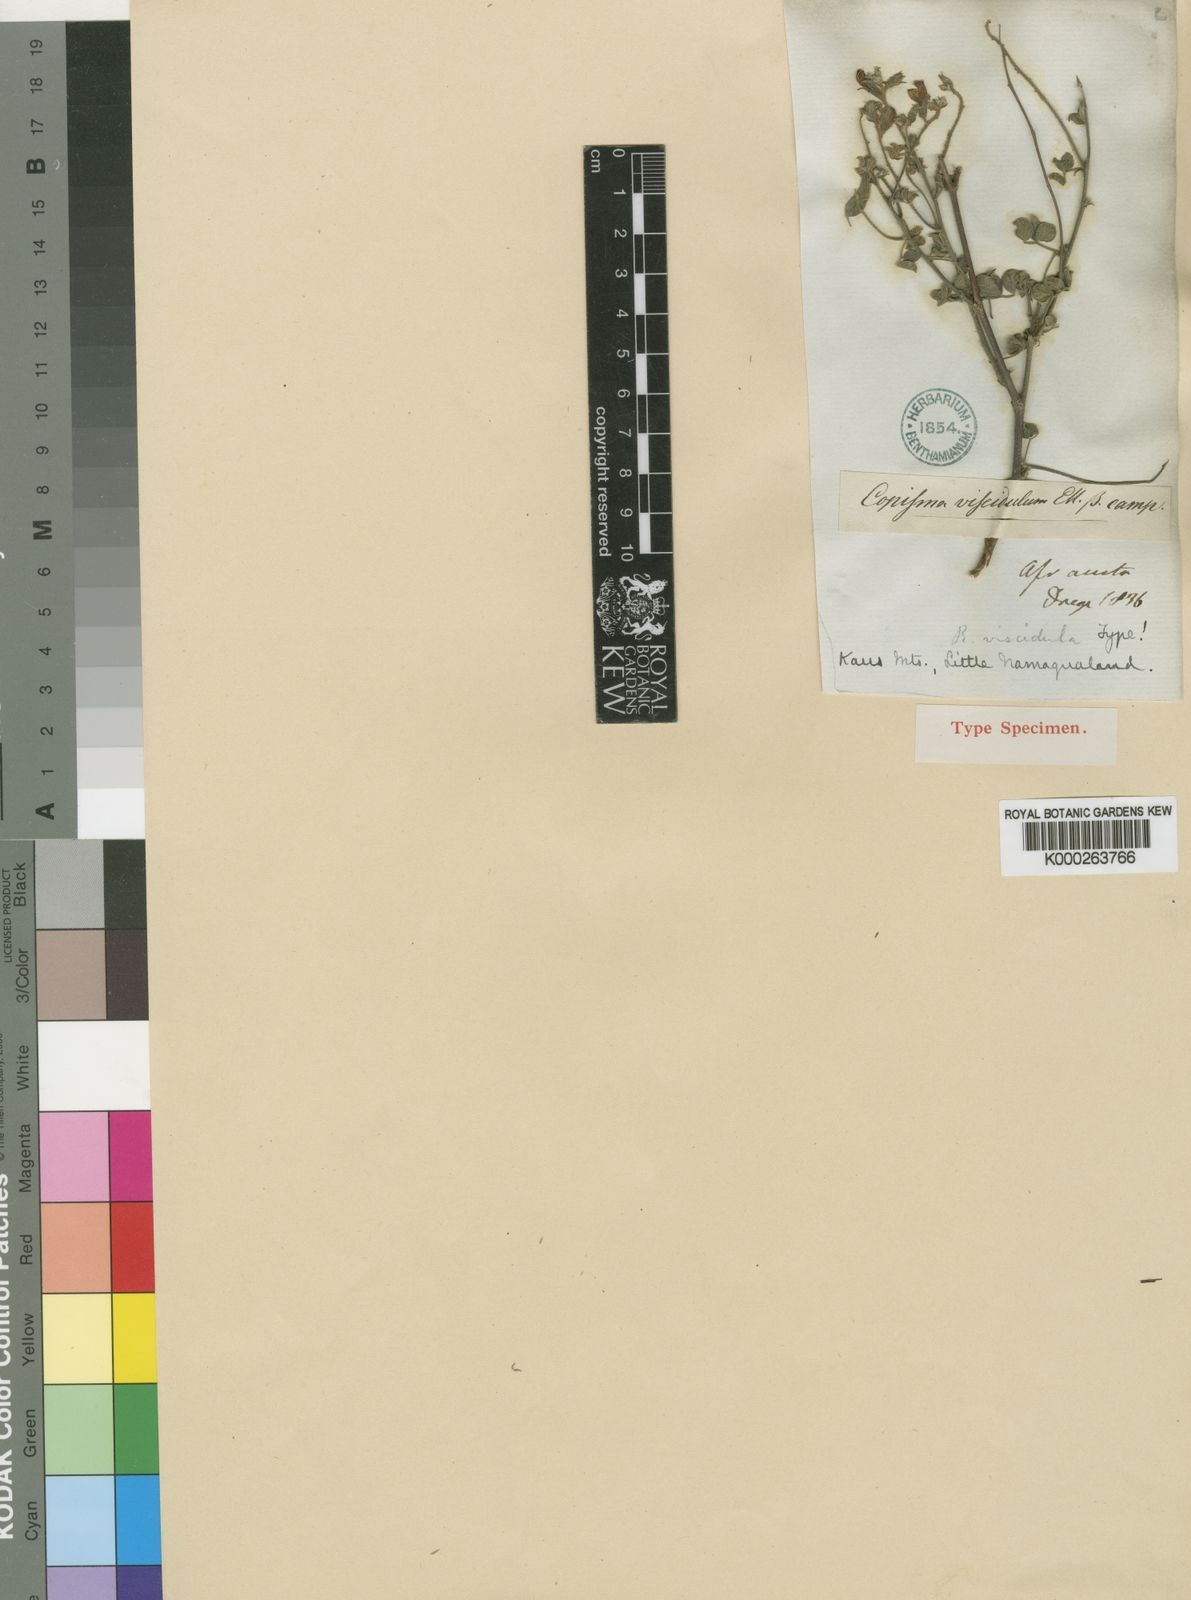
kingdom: Plantae
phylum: Tracheophyta
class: Magnoliopsida
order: Fabales
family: Fabaceae
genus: Rhynchosia
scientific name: Rhynchosia viscidula
